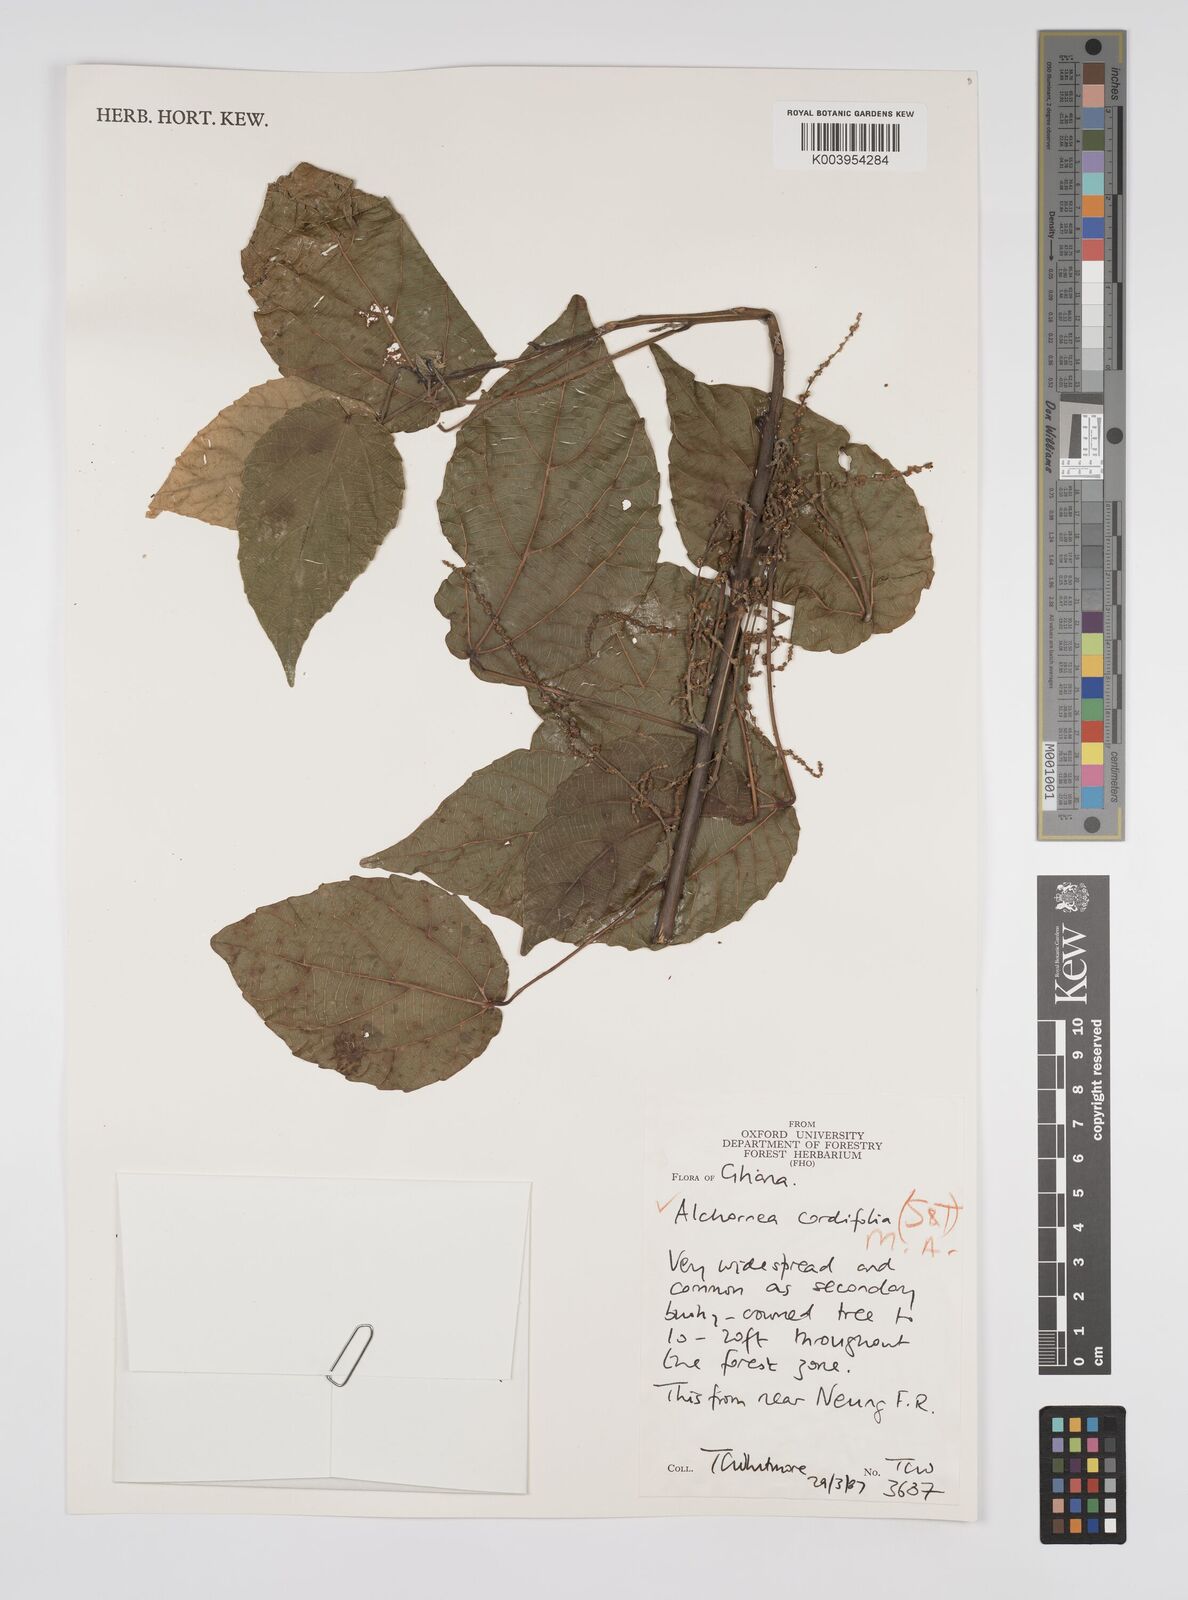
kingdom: Plantae
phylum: Tracheophyta
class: Magnoliopsida
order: Malpighiales
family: Euphorbiaceae
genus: Alchornea
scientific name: Alchornea cordifolia
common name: Christmasbush
